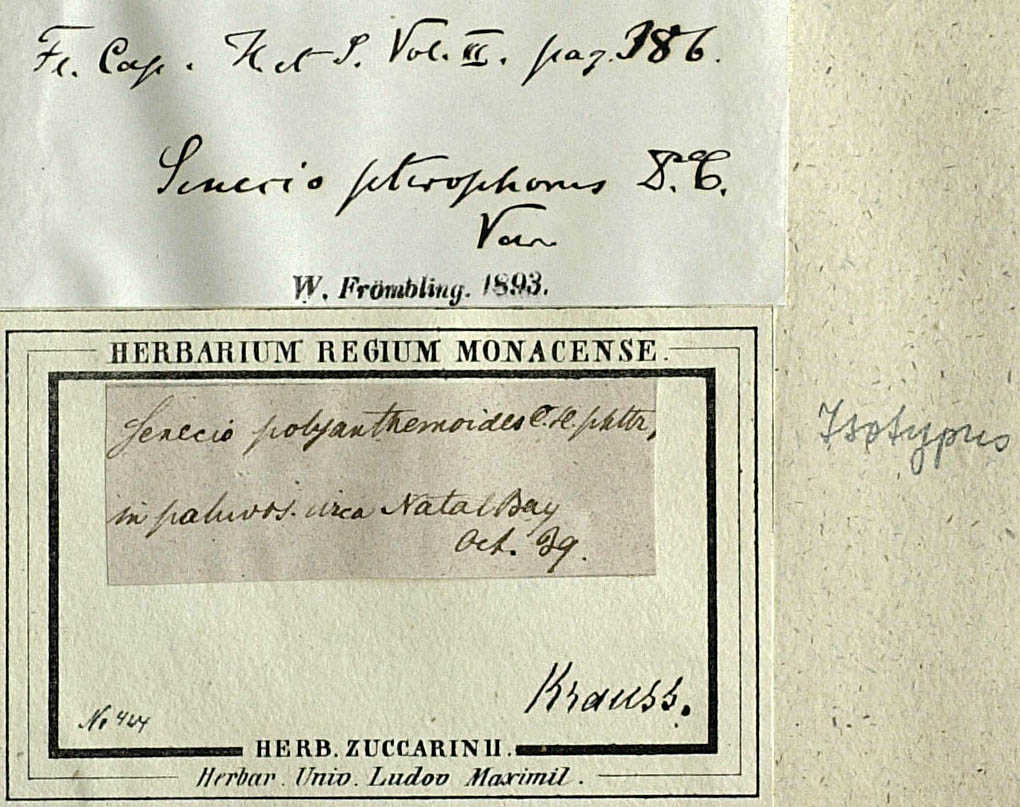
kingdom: Plantae
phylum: Tracheophyta
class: Magnoliopsida
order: Asterales
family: Asteraceae
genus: Senecio
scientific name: Senecio polyanthemoides
